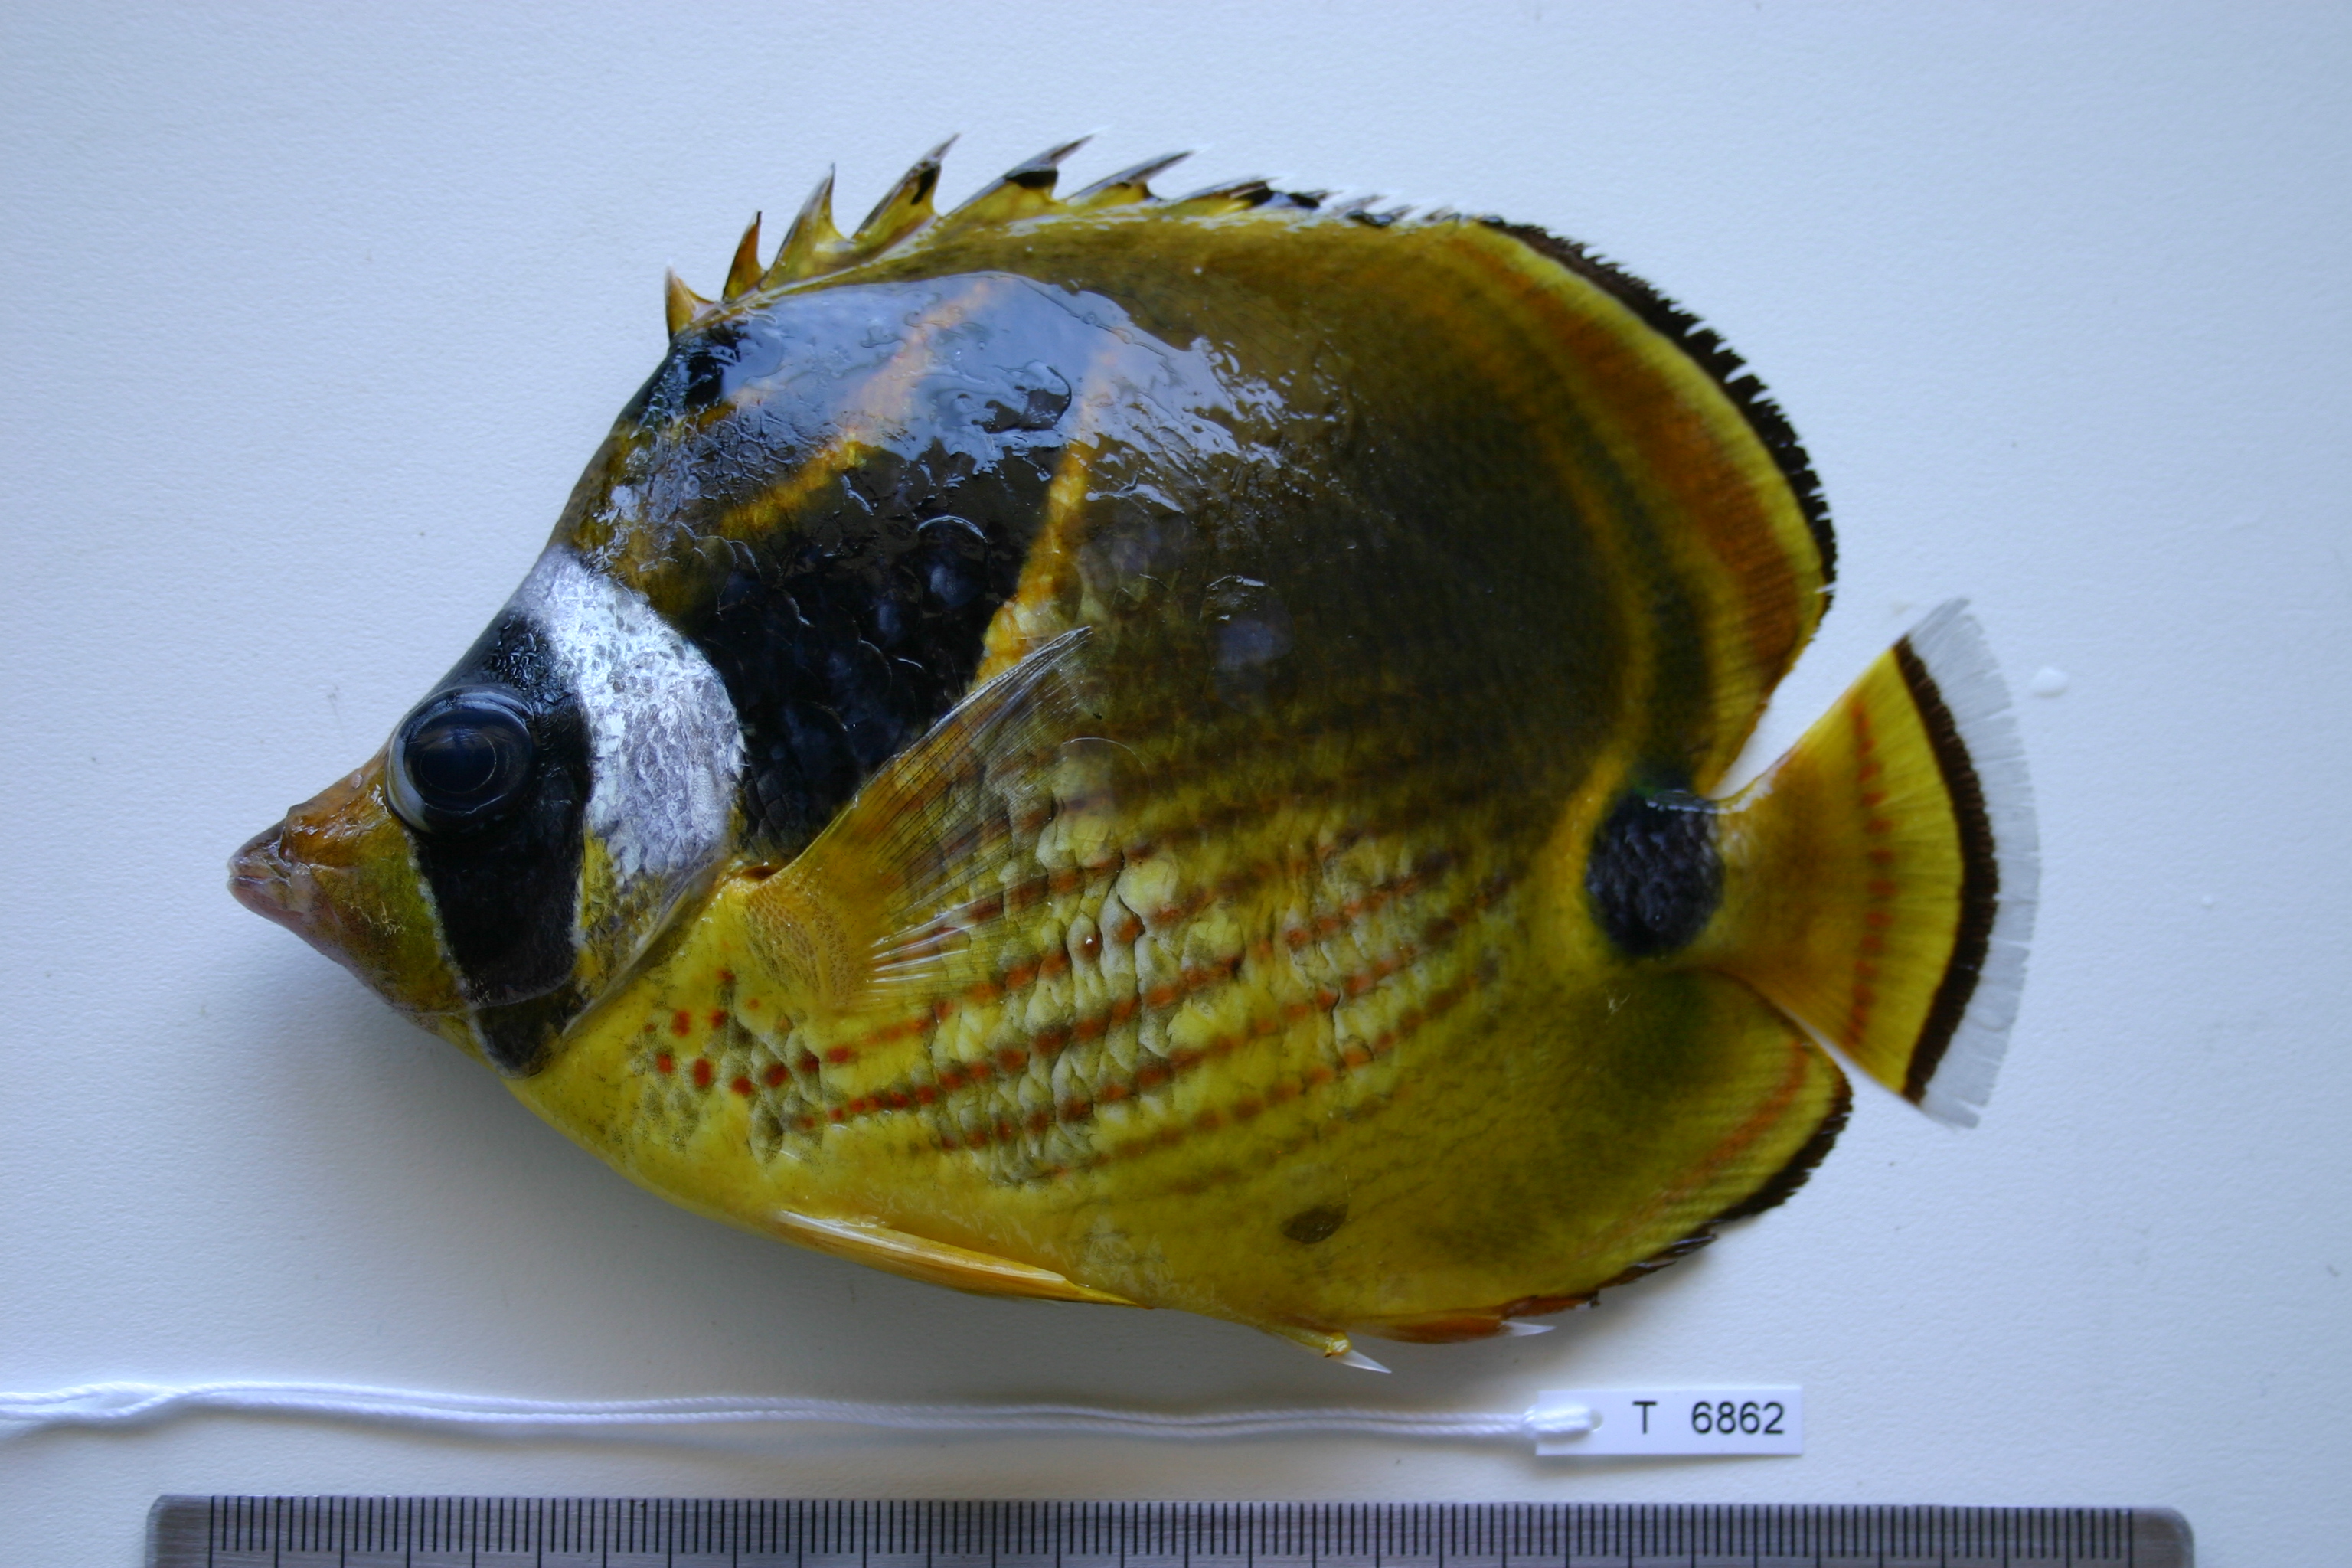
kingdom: Animalia
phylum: Chordata
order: Perciformes
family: Chaetodontidae
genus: Chaetodon
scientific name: Chaetodon lunula
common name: Raccoon butterflyfish
